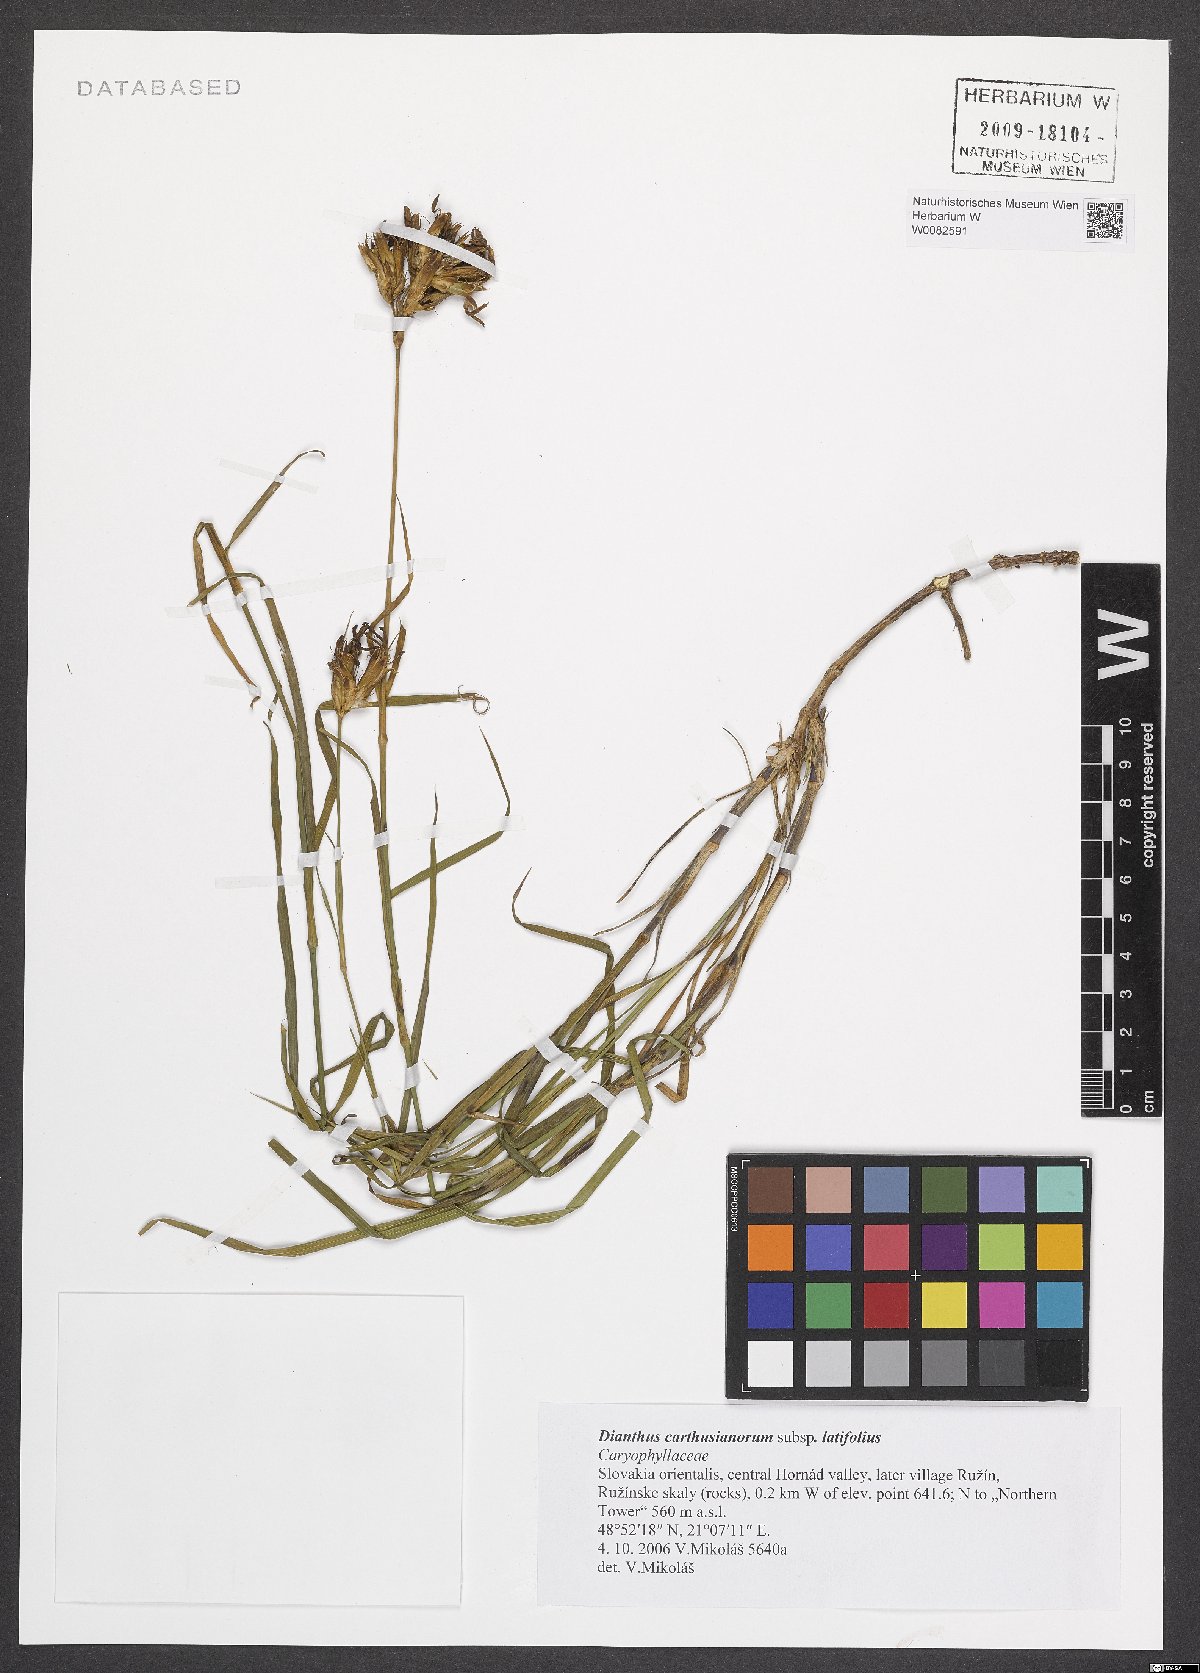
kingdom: Plantae
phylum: Tracheophyta
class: Magnoliopsida
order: Caryophyllales
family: Caryophyllaceae
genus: Dianthus
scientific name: Dianthus carthusianorum
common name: Carthusian pink
